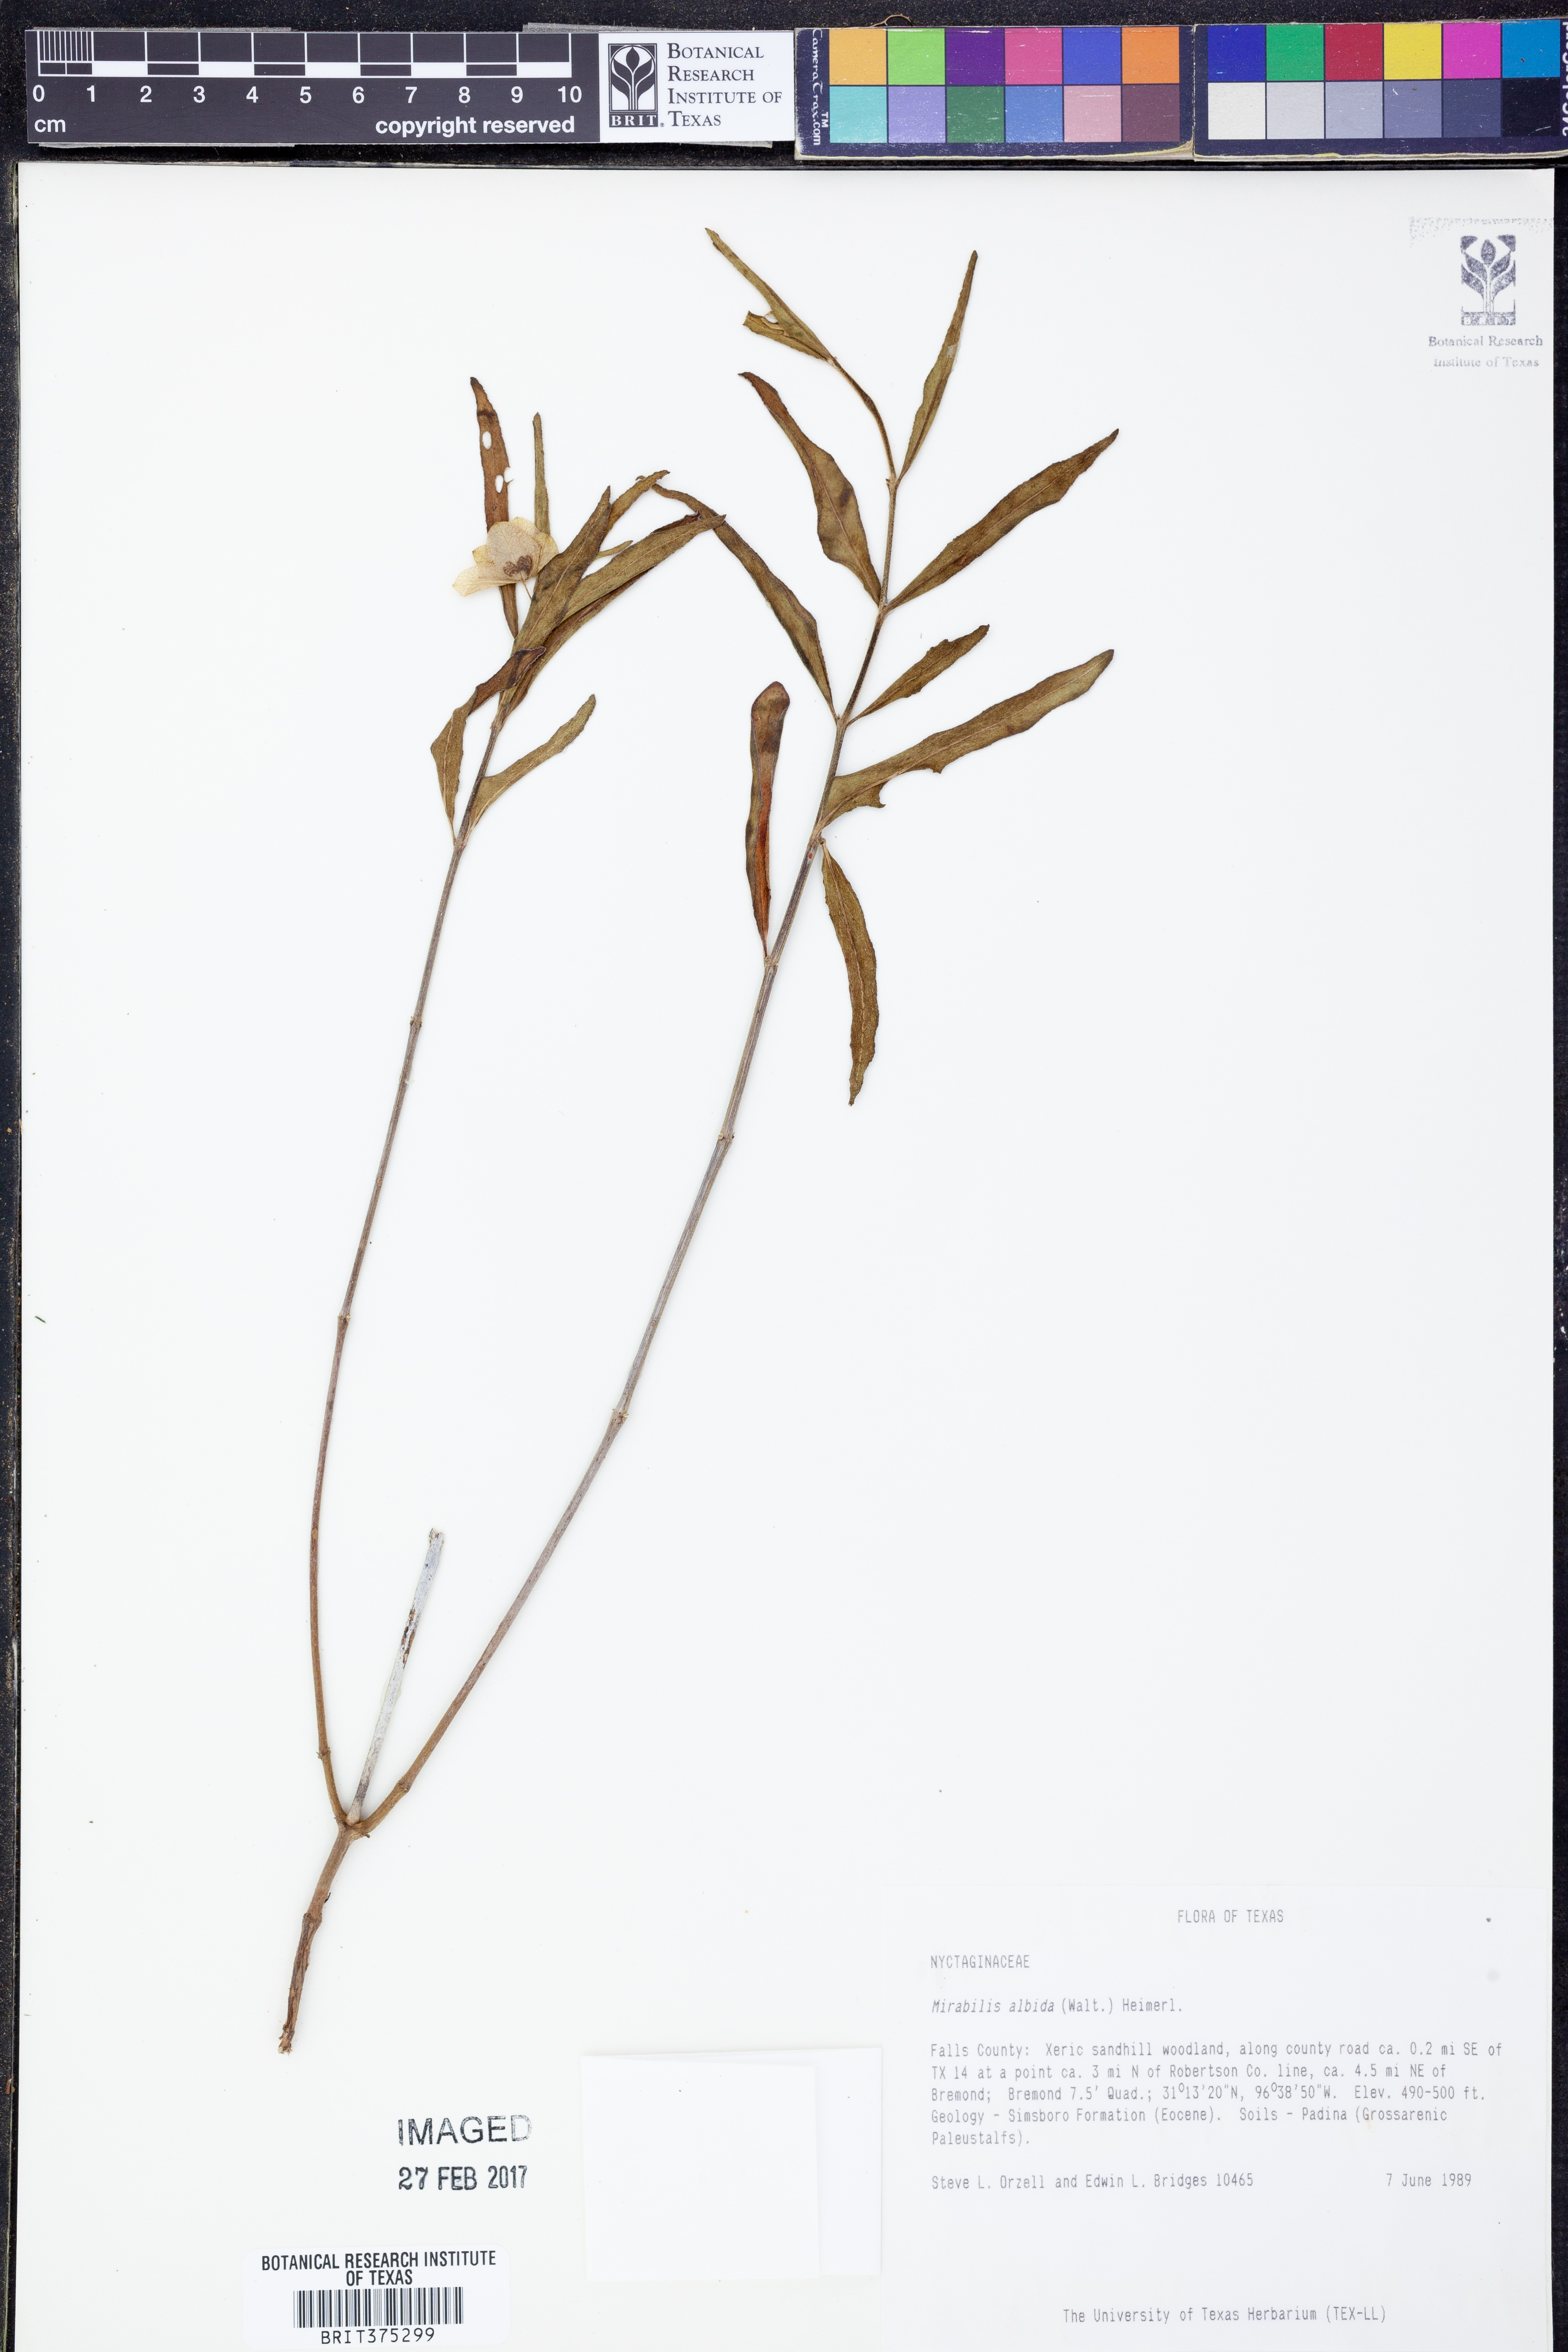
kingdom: Plantae
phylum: Tracheophyta
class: Magnoliopsida
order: Caryophyllales
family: Nyctaginaceae
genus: Mirabilis
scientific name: Mirabilis albida
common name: Hairy four-o'clock
